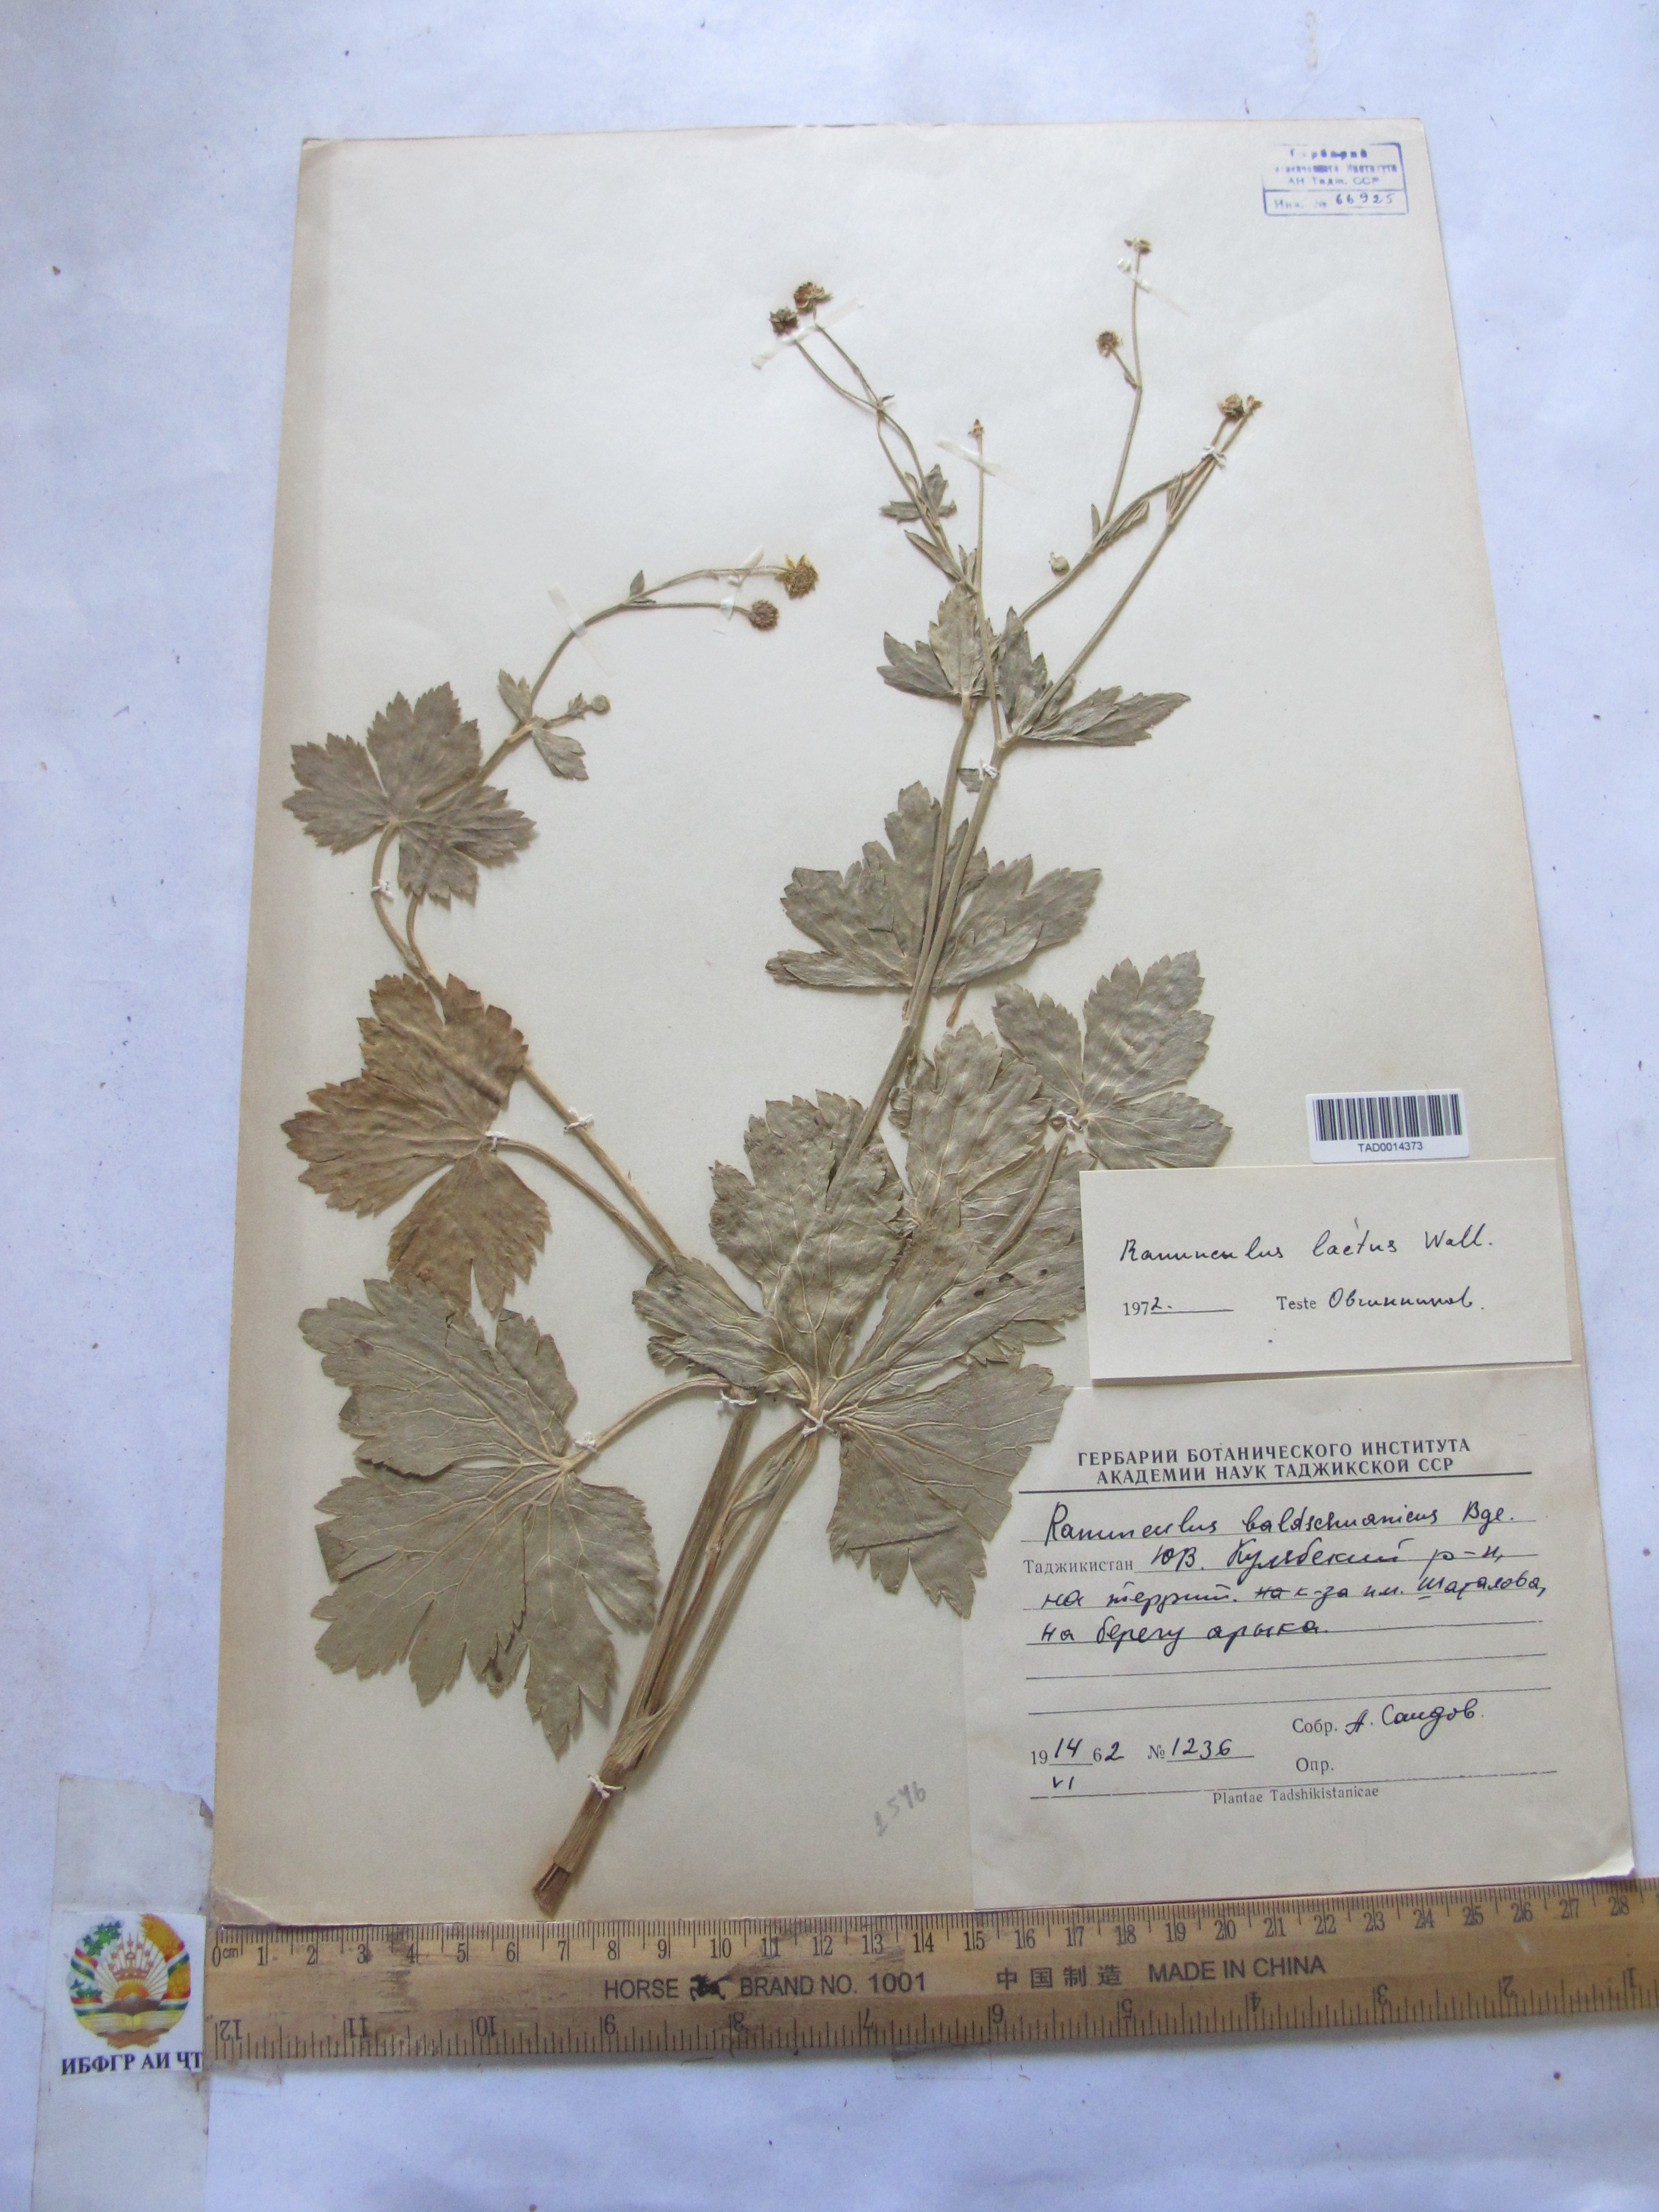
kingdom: Plantae
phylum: Tracheophyta
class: Magnoliopsida
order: Ranunculales
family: Ranunculaceae
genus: Ranunculus
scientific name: Ranunculus distans
